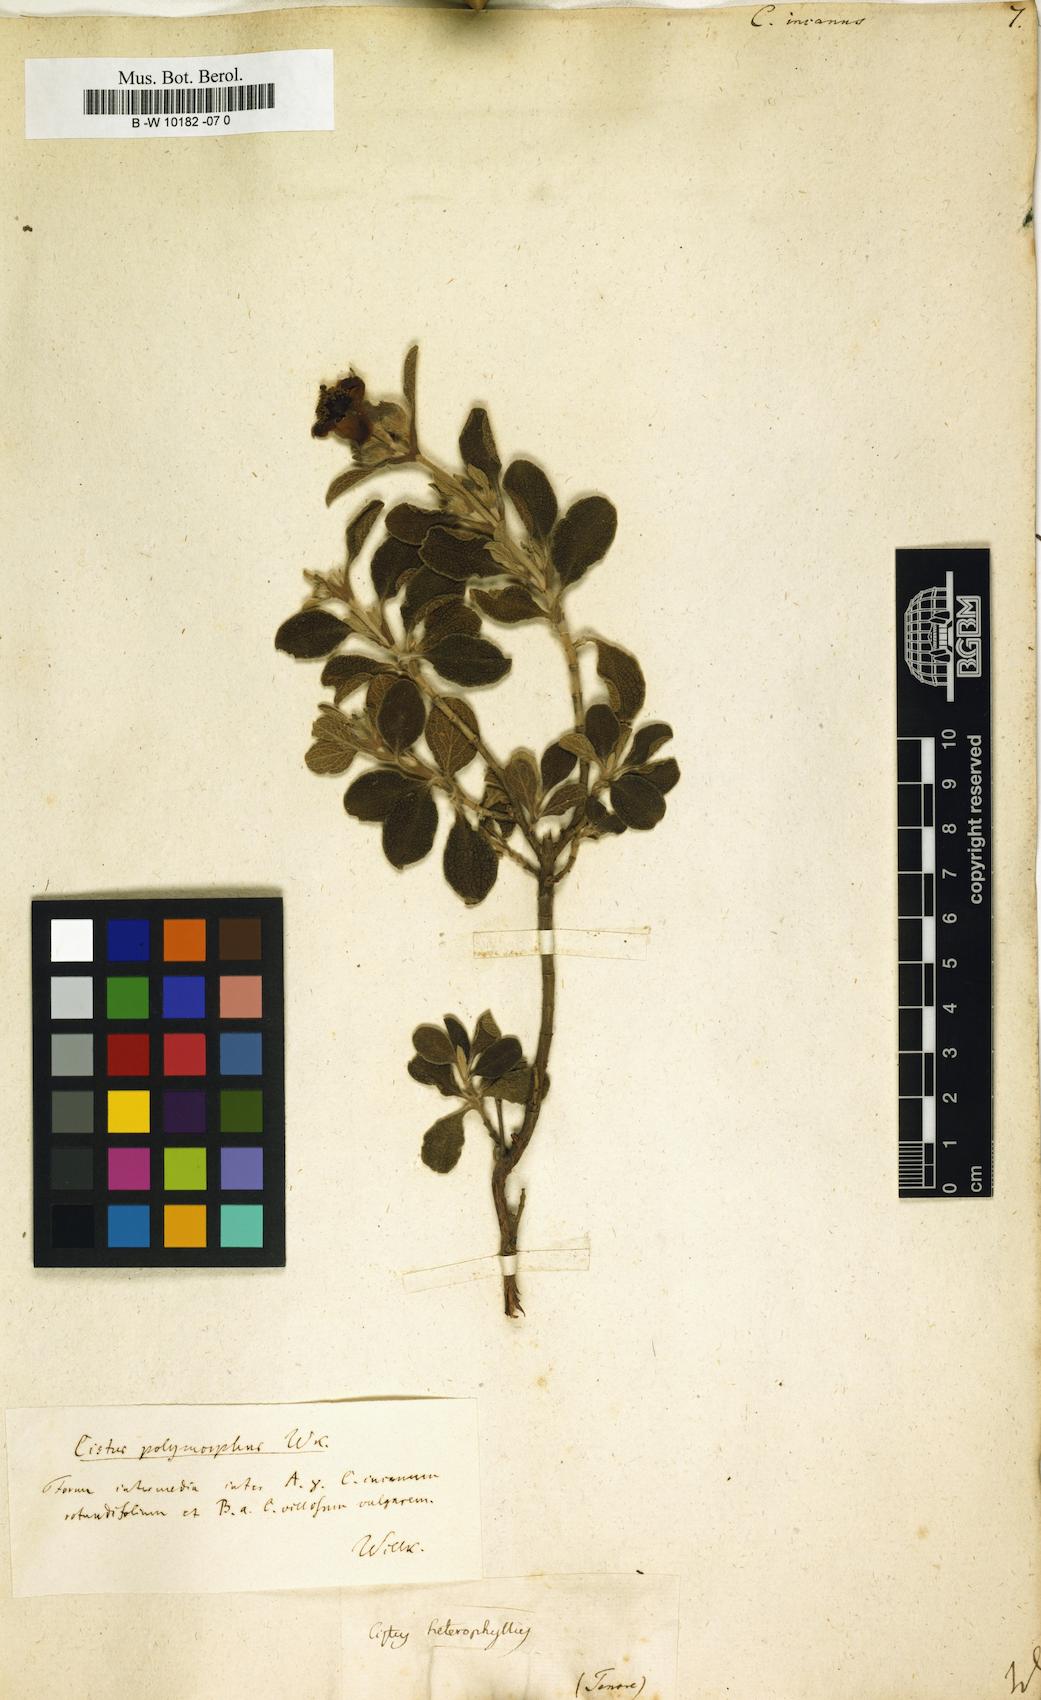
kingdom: Plantae
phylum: Tracheophyta
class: Magnoliopsida
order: Malvales
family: Cistaceae
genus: Cistus
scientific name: Cistus incanus
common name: Hairy rockrose
